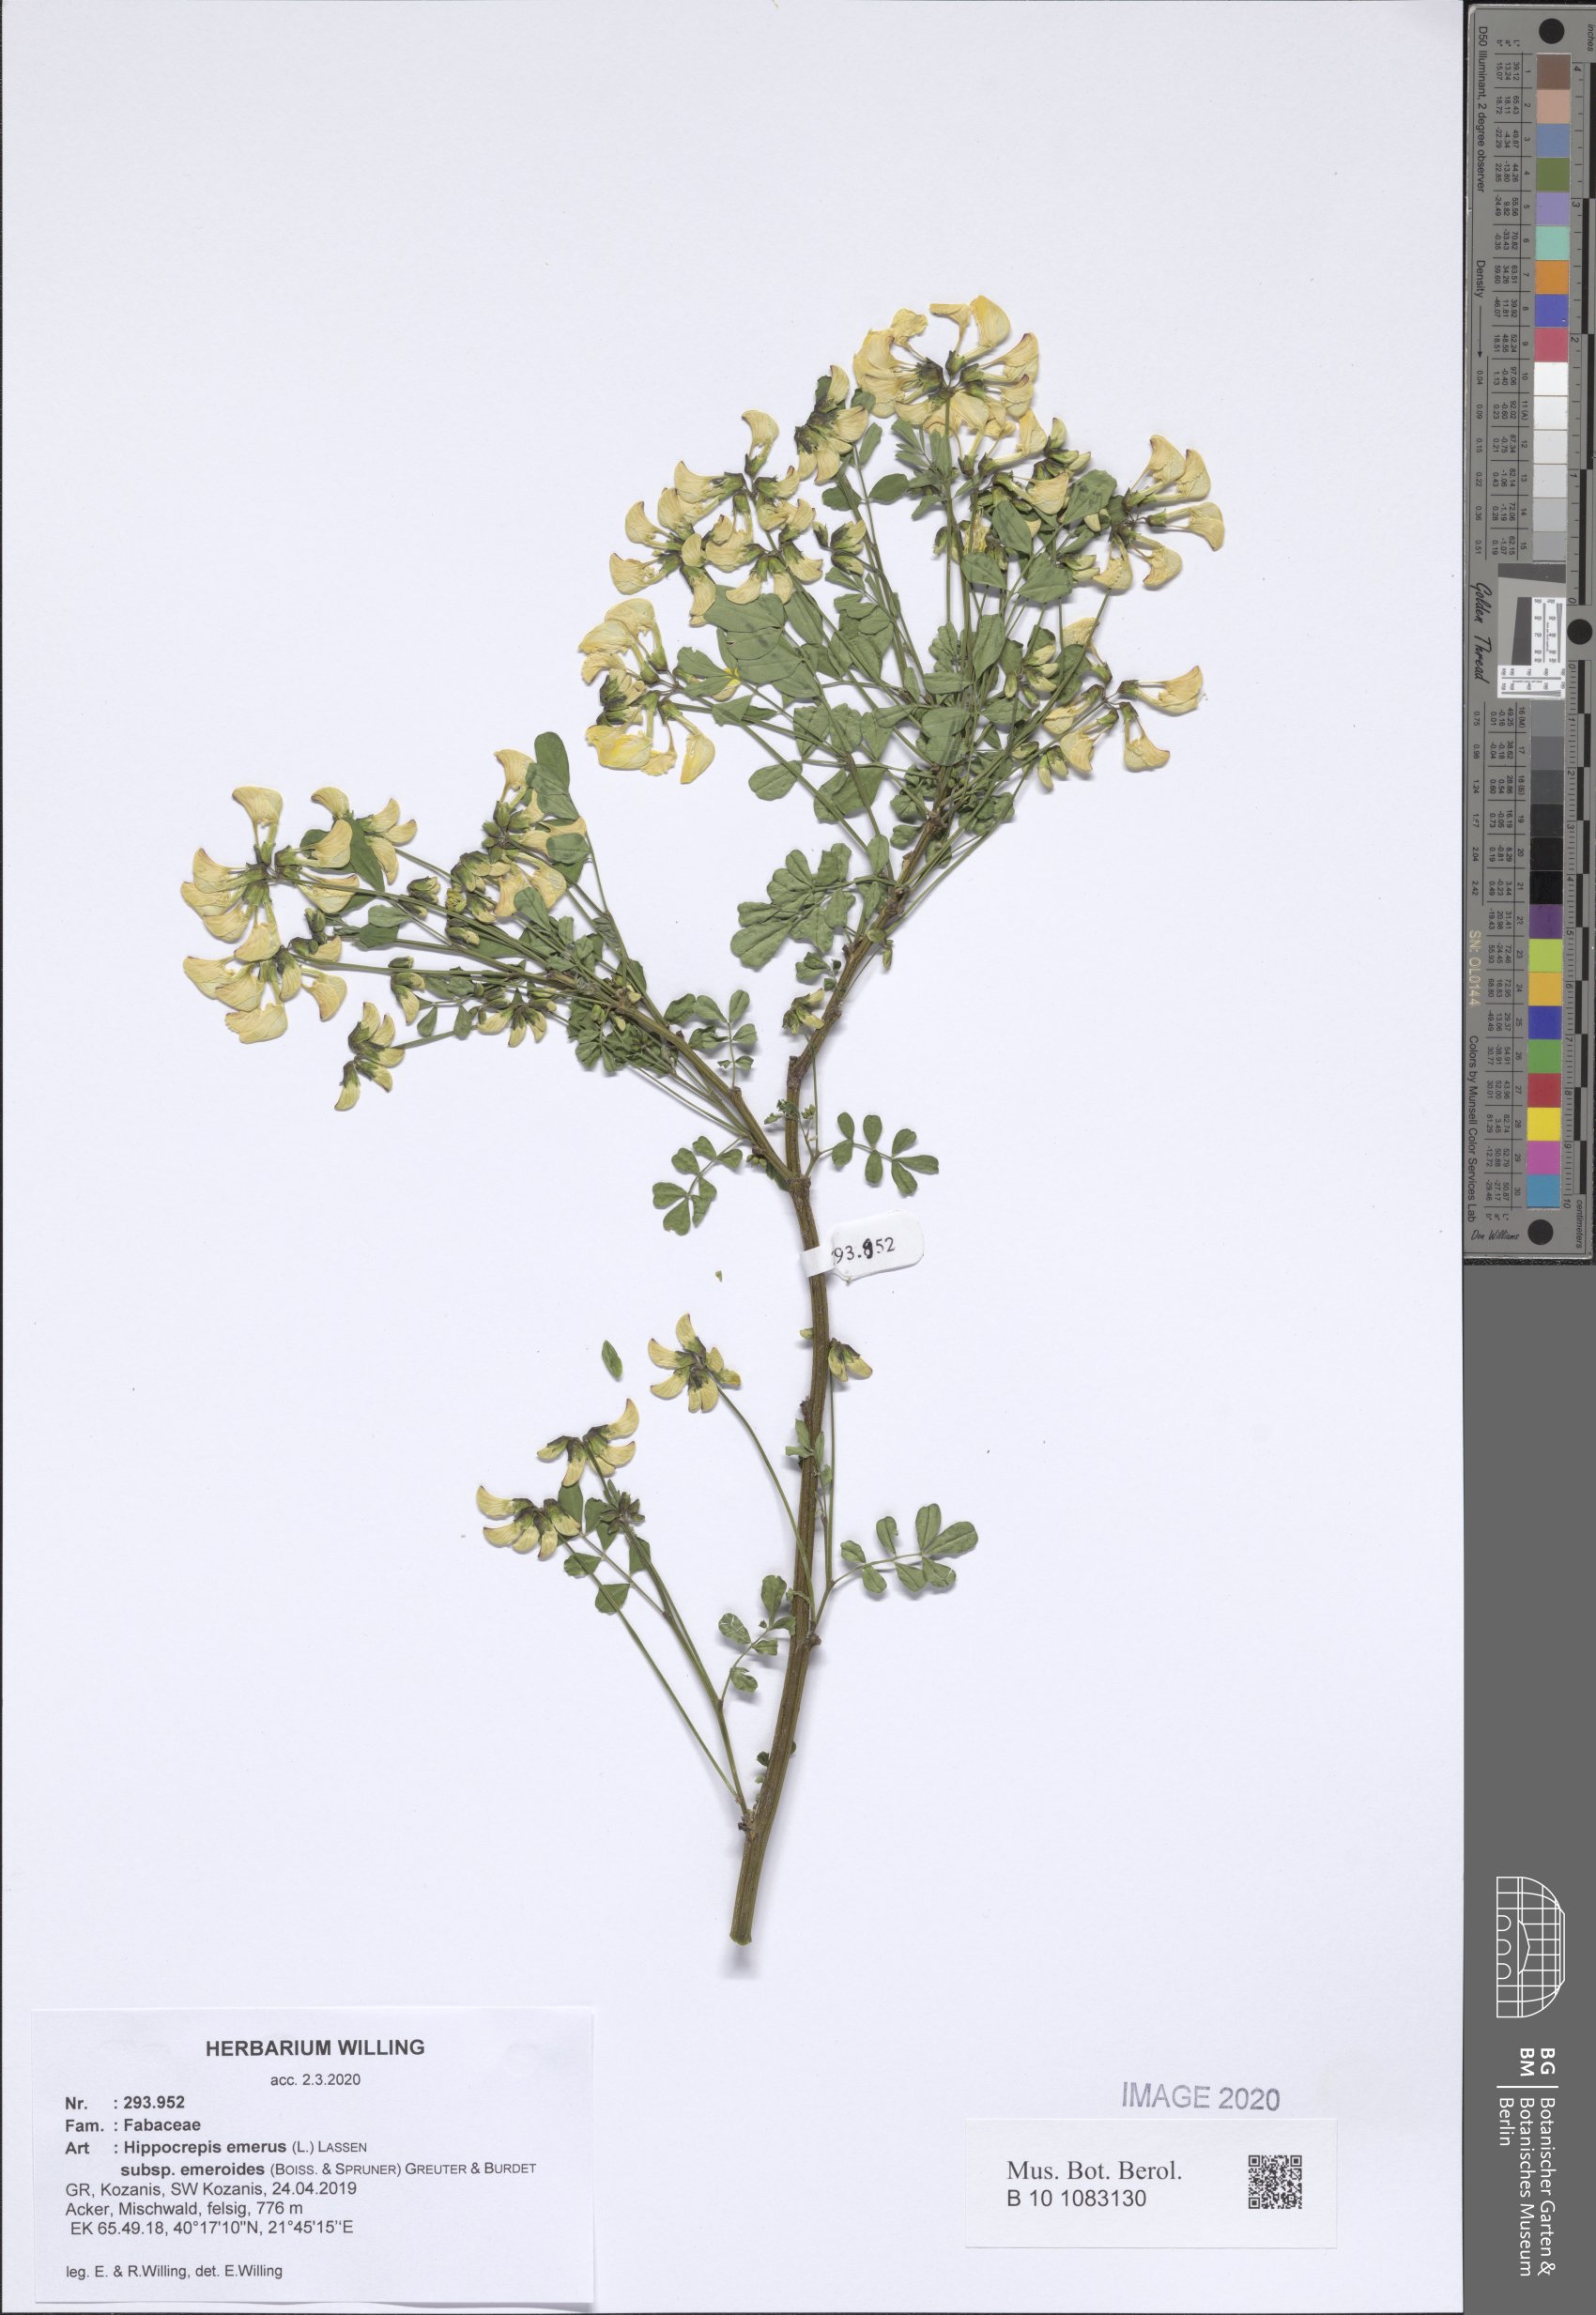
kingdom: Plantae
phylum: Tracheophyta
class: Magnoliopsida
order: Fabales
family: Fabaceae
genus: Hippocrepis
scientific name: Hippocrepis emerus
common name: Scorpion senna
